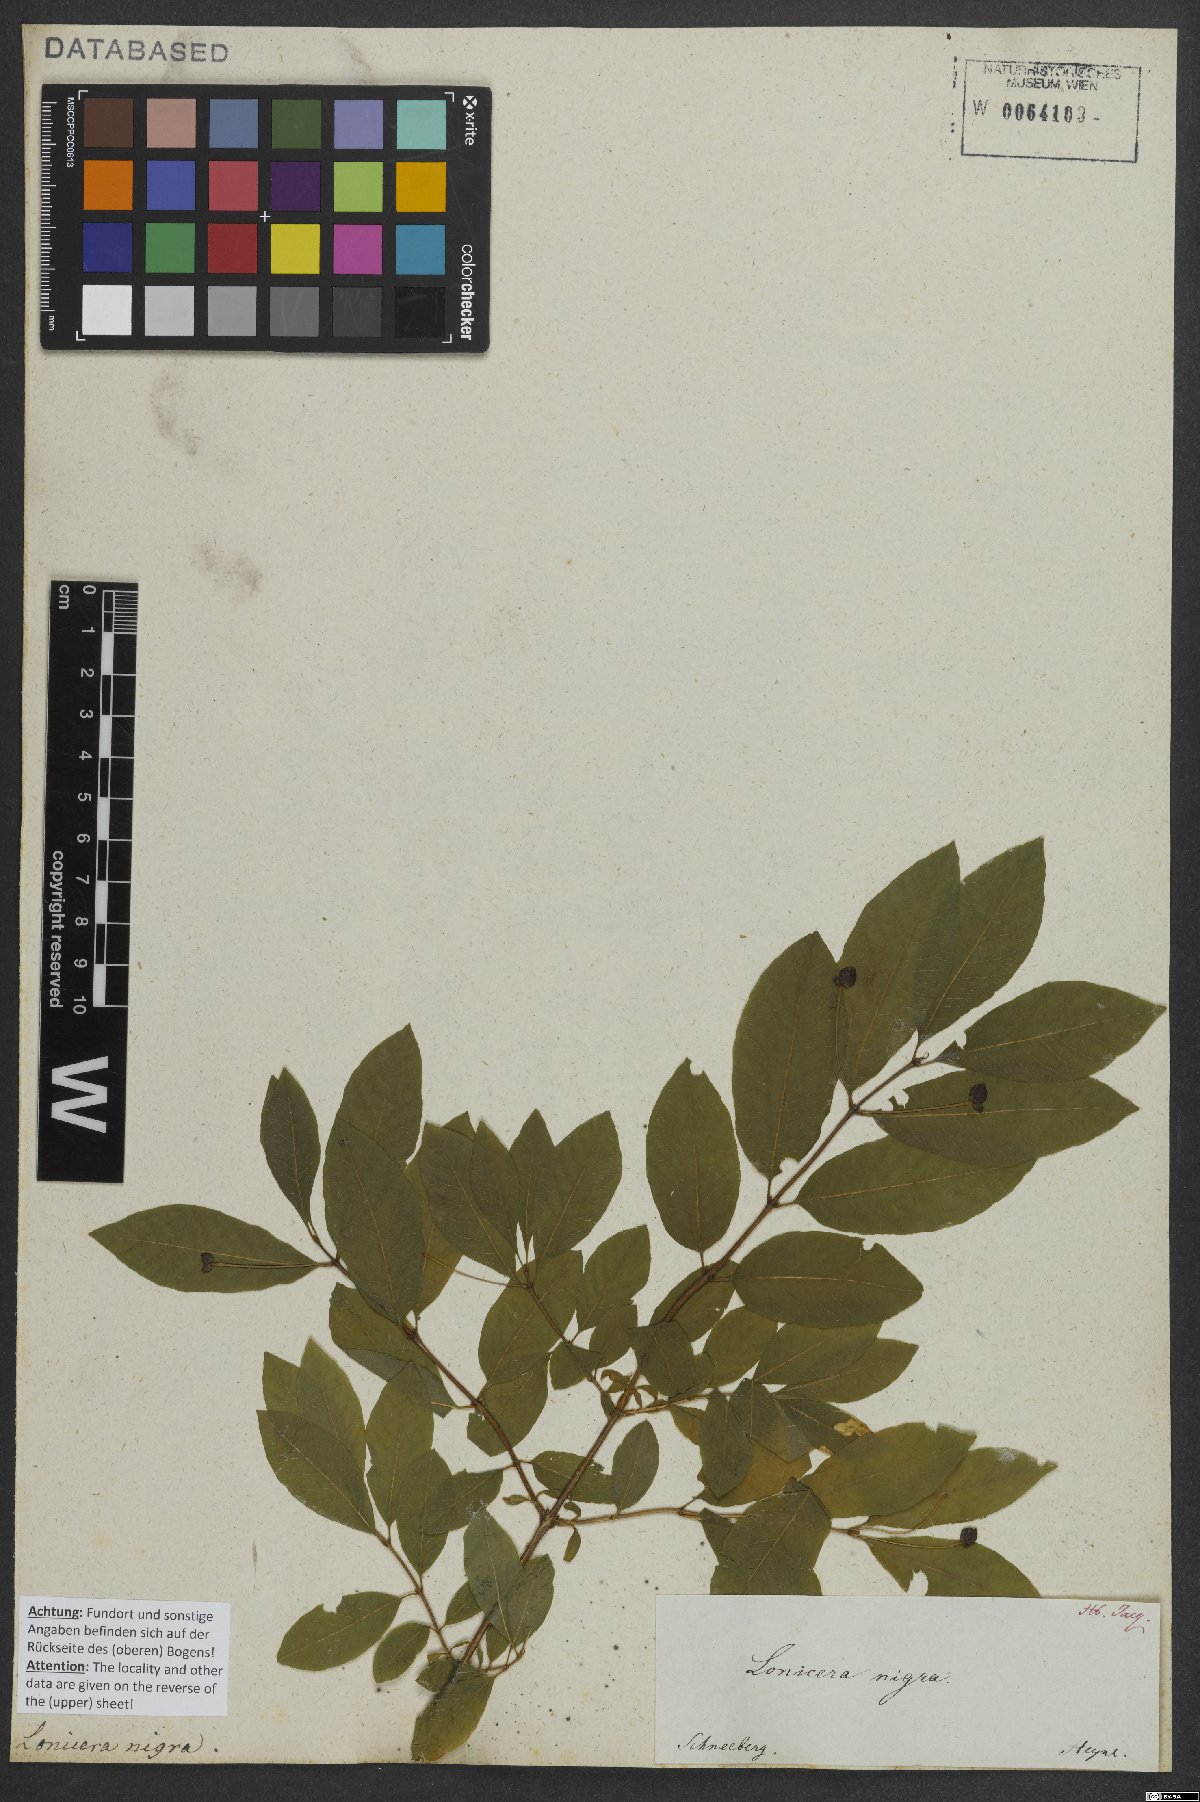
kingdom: Plantae
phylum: Tracheophyta
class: Magnoliopsida
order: Dipsacales
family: Caprifoliaceae
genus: Lonicera
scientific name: Lonicera nigra
